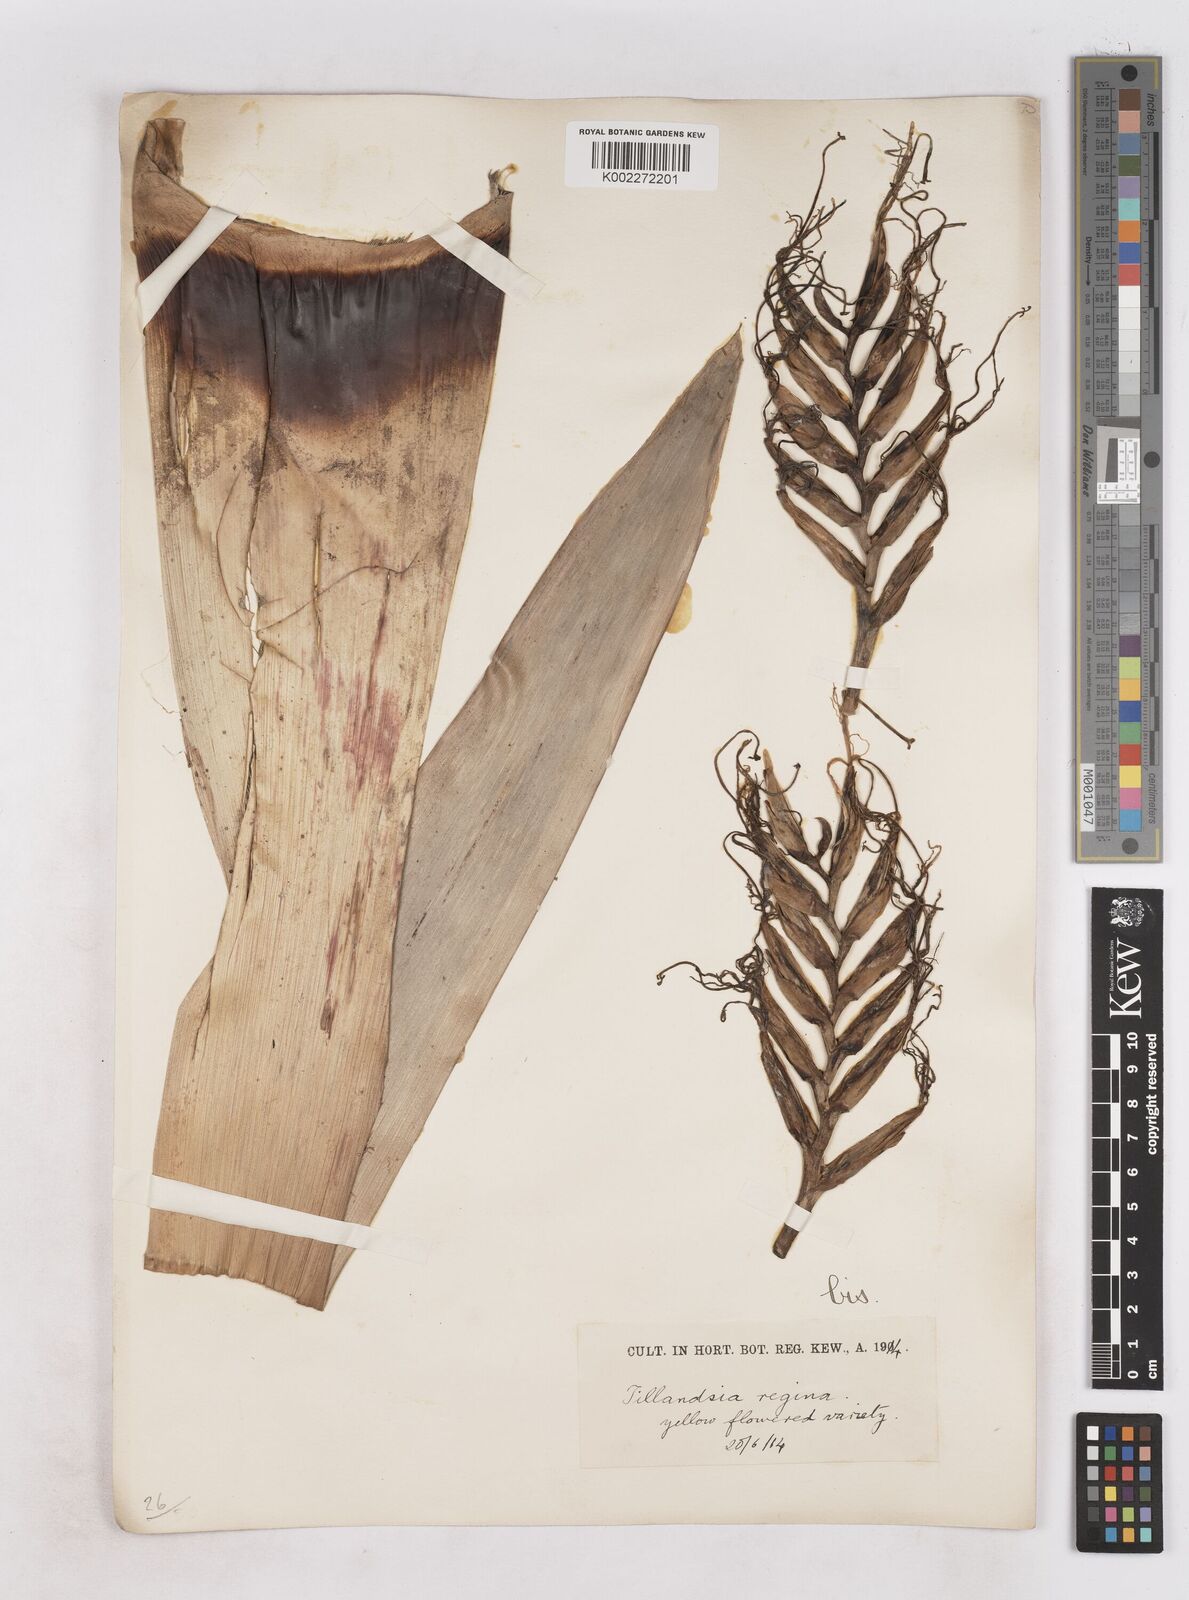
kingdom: Plantae
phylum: Tracheophyta
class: Liliopsida
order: Poales
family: Bromeliaceae
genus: Alcantarea
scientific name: Alcantarea regina
